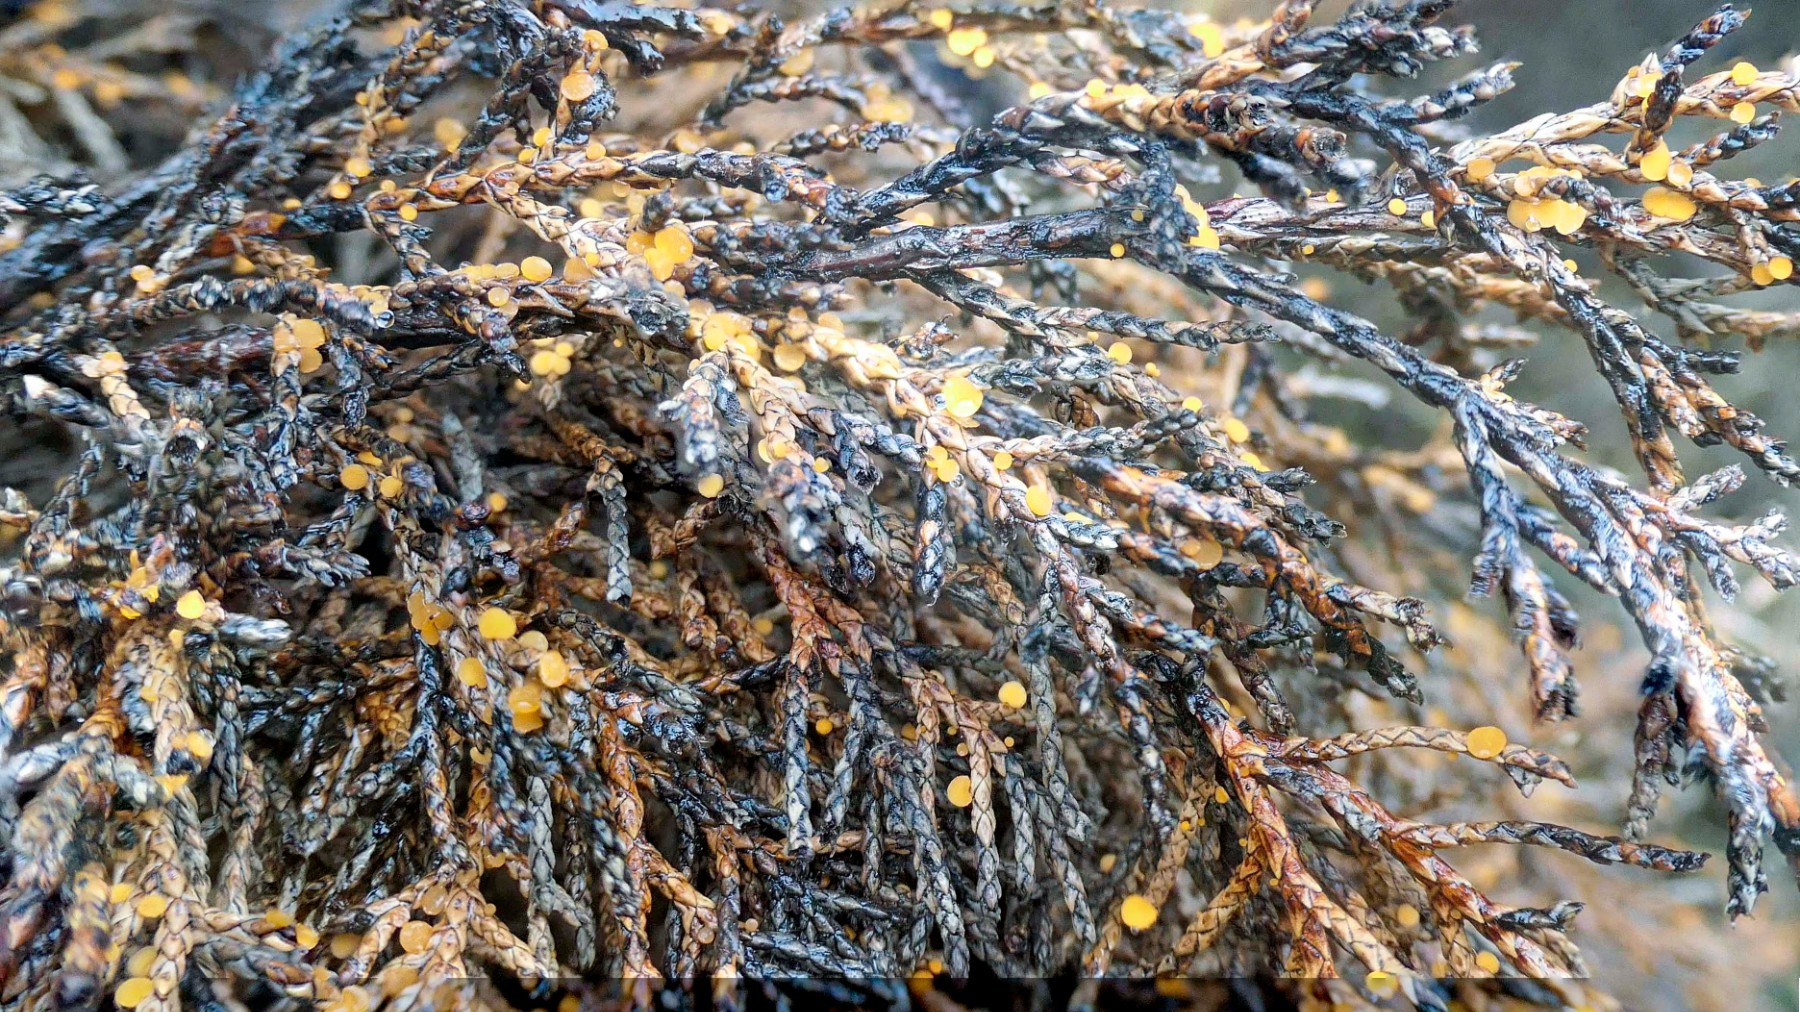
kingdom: Fungi
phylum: Ascomycota
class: Pezizomycetes
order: Pezizales
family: Sarcoscyphaceae
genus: Pithya
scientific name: Pithya cupressina
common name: lille dukatbæger
